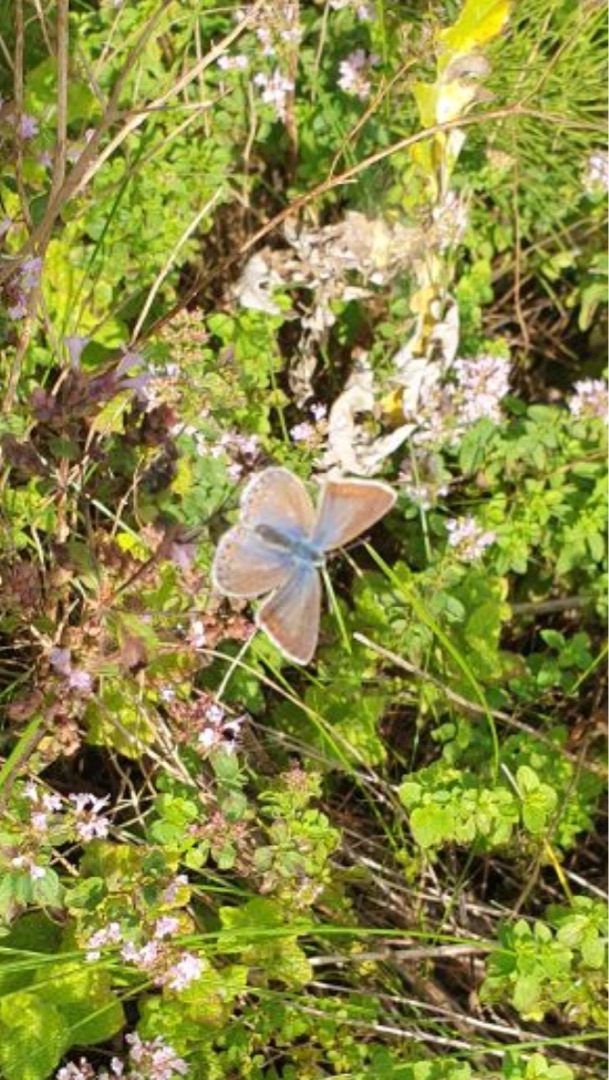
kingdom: Animalia
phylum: Arthropoda
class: Insecta
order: Lepidoptera
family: Lycaenidae
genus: Polyommatus
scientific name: Polyommatus icarus
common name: Almindelig blåfugl
